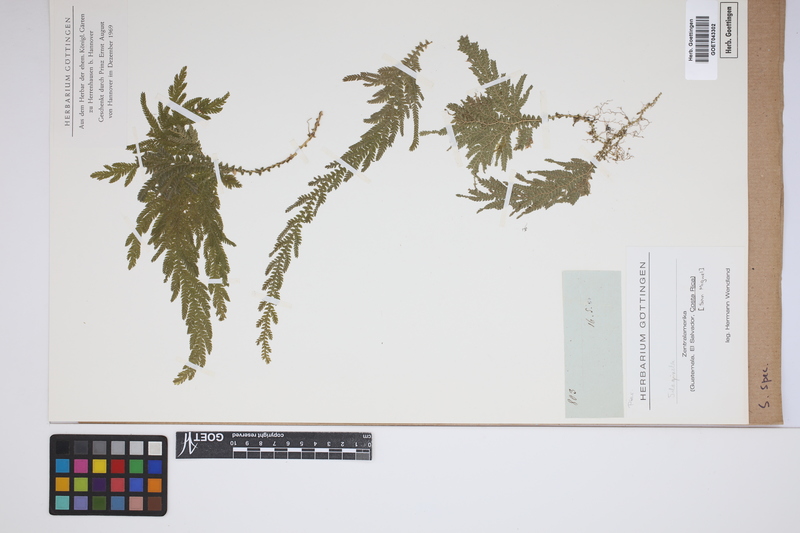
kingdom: Plantae
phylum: Tracheophyta
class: Lycopodiopsida
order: Selaginellales
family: Selaginellaceae
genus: Selaginella
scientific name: Selaginella
